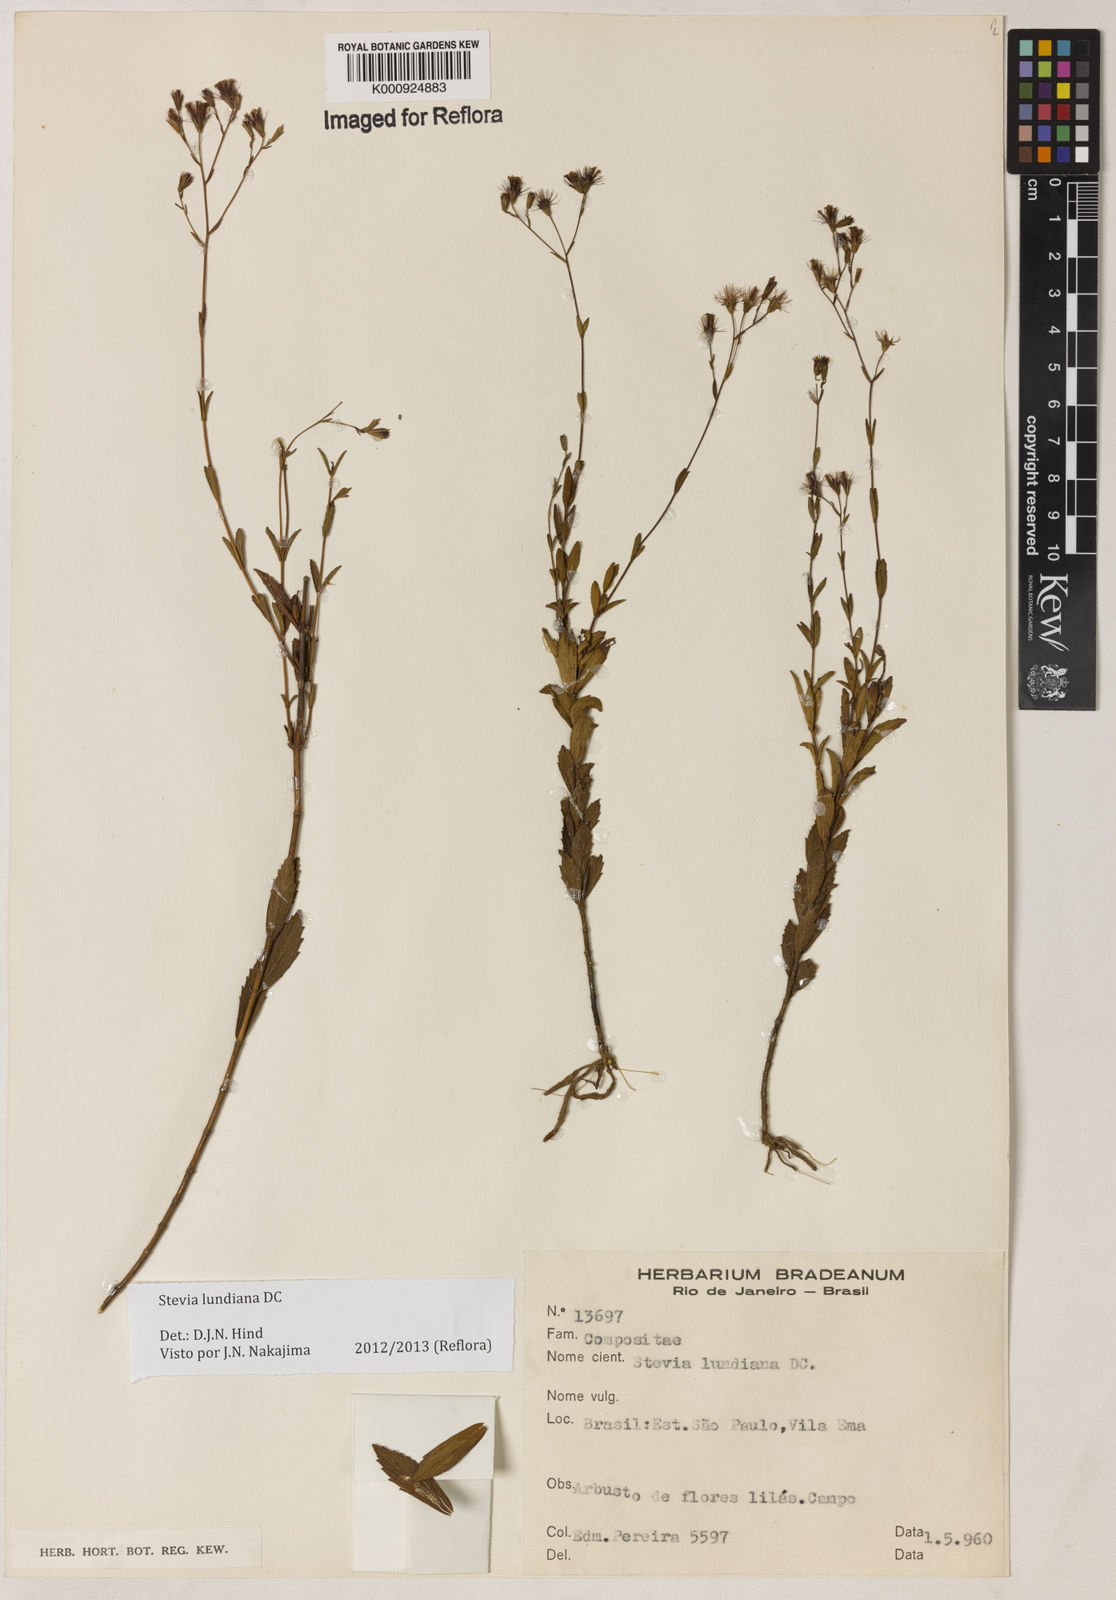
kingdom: Plantae
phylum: Tracheophyta
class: Magnoliopsida
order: Asterales
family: Asteraceae
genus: Stevia
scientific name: Stevia lundiana
